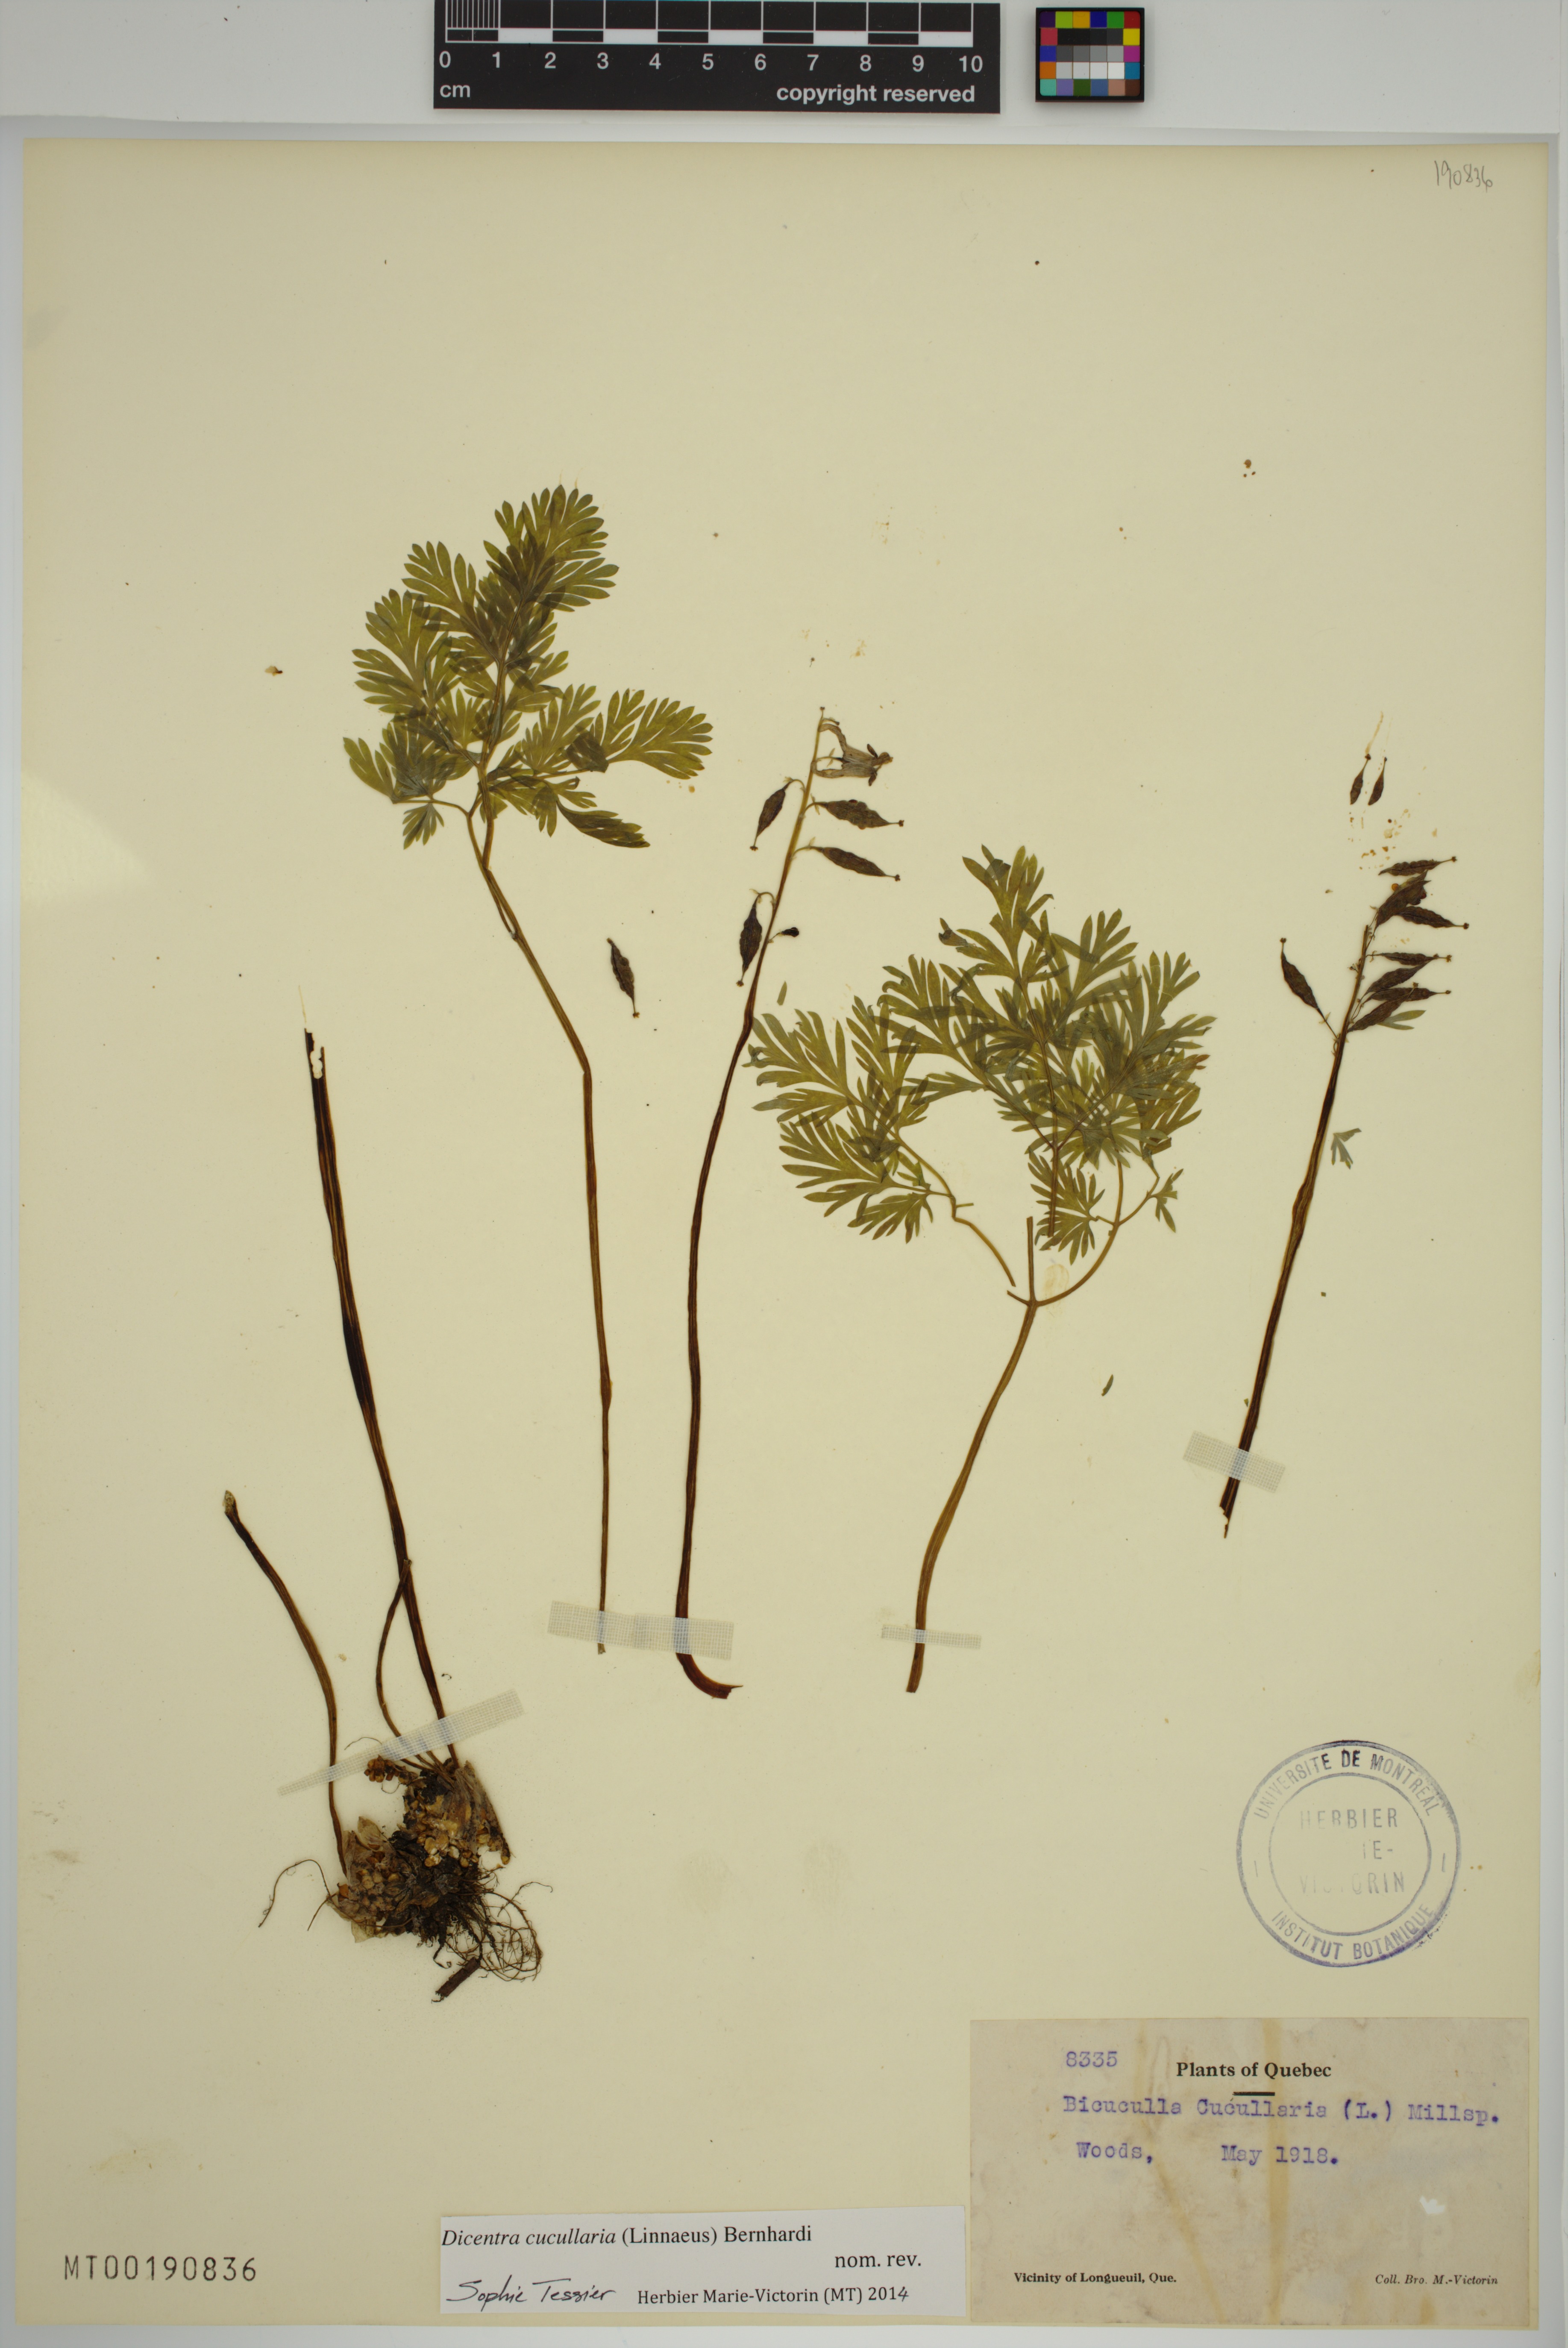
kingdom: Plantae
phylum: Tracheophyta
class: Magnoliopsida
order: Ranunculales
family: Papaveraceae
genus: Dicentra
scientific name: Dicentra cucullaria
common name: Dutchman's breeches
